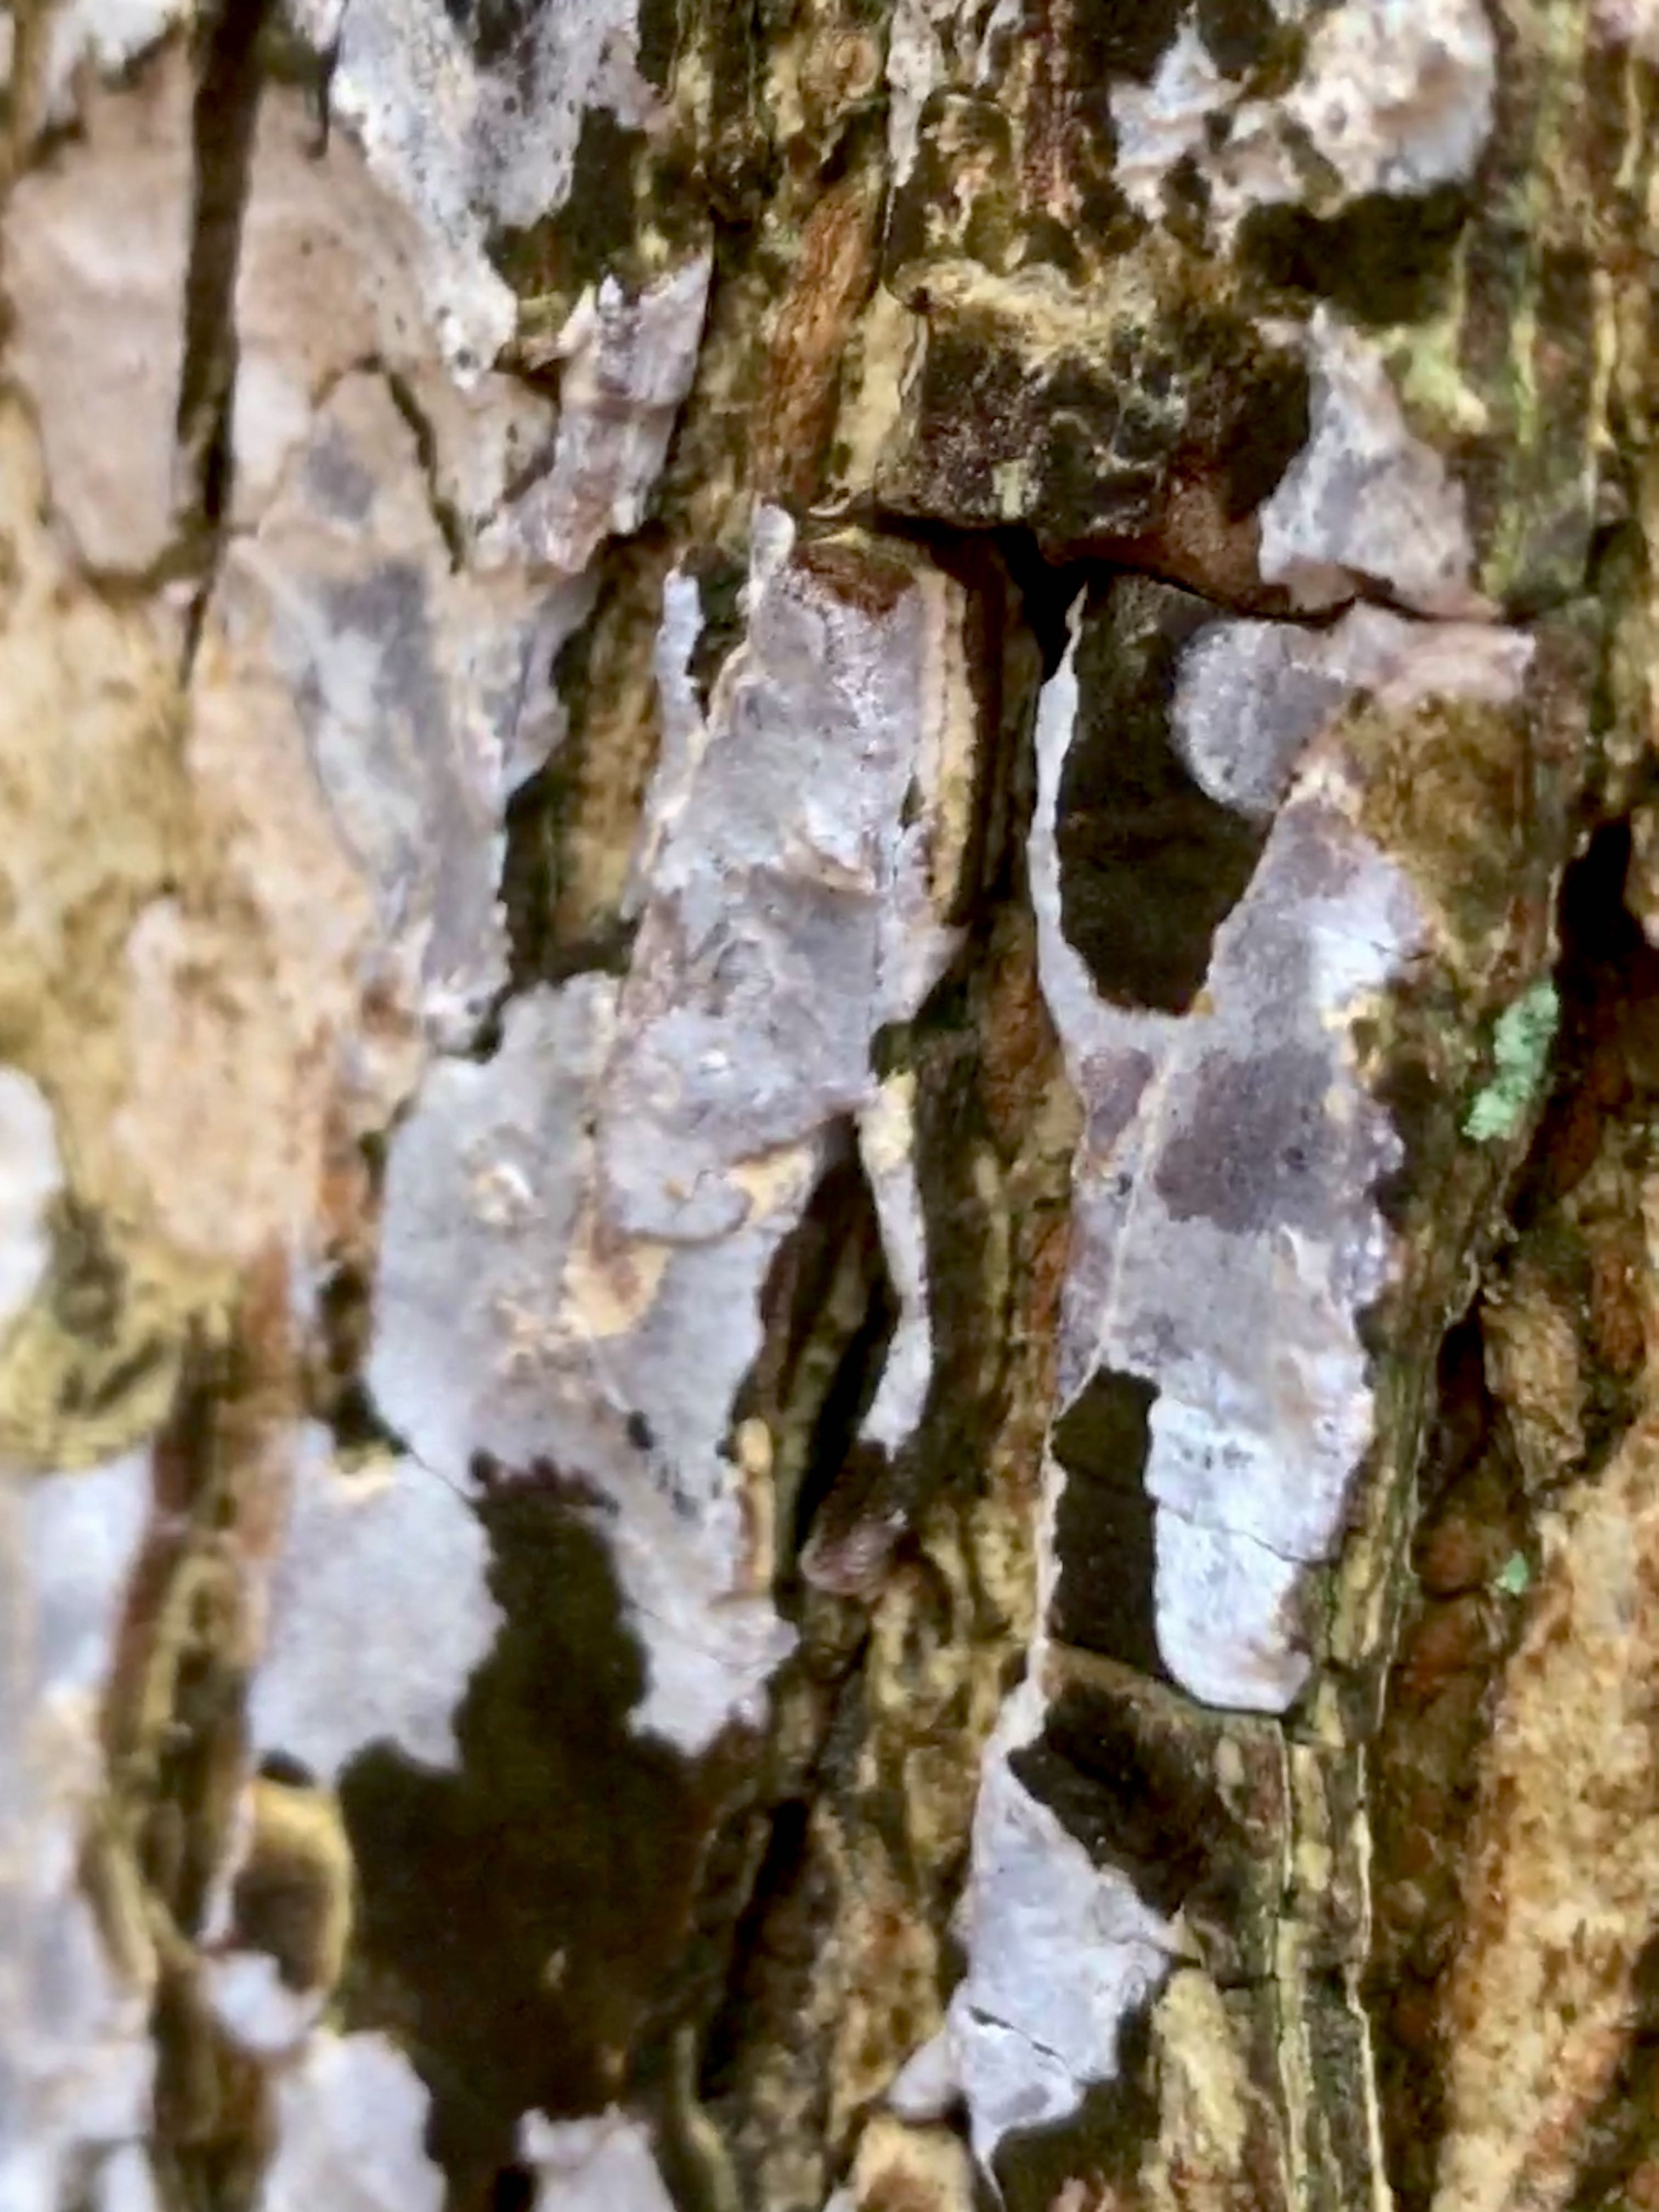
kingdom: Fungi
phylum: Basidiomycota
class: Agaricomycetes
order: Agaricales
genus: Dendrothele
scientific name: Dendrothele acerina
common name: navr-kalkplet
